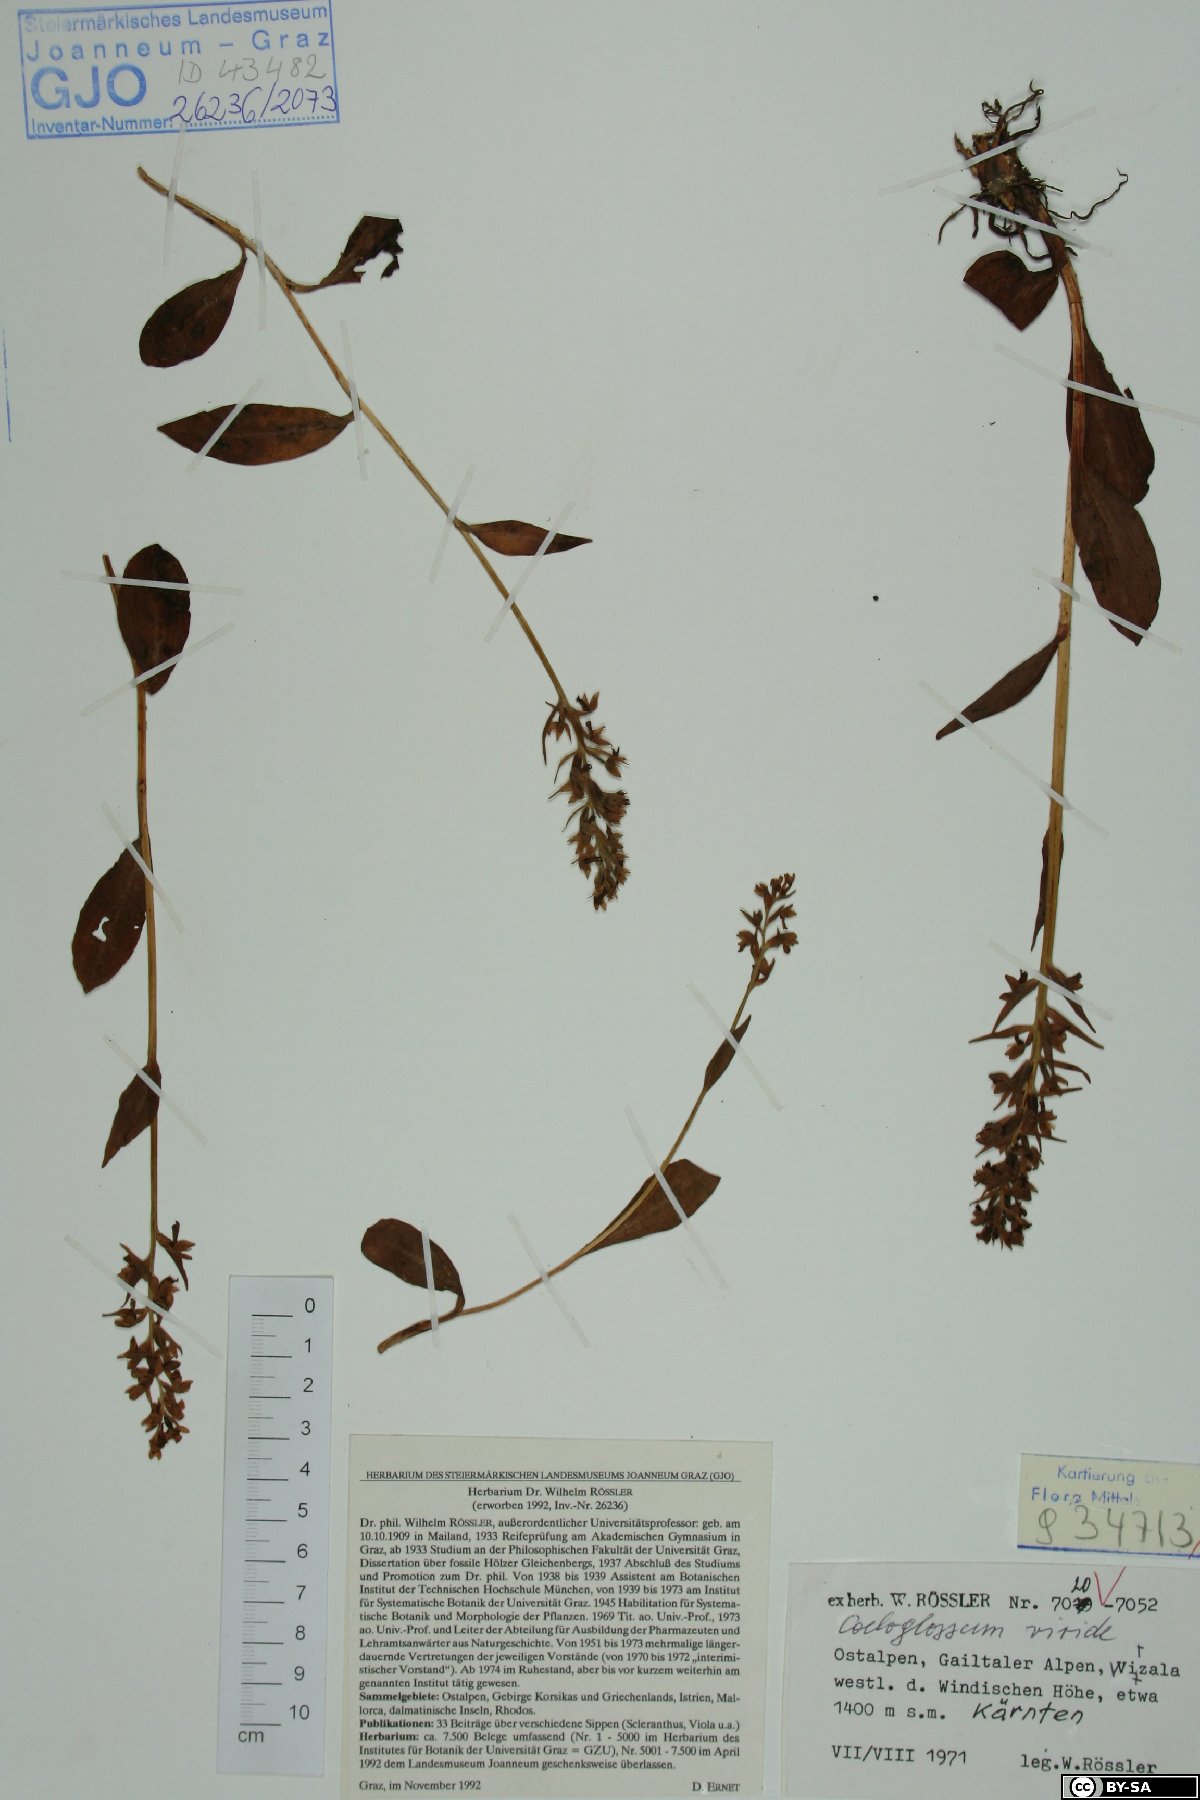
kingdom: Plantae
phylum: Tracheophyta
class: Liliopsida
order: Asparagales
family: Orchidaceae
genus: Dactylorhiza
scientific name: Dactylorhiza viridis
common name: Longbract frog orchid
